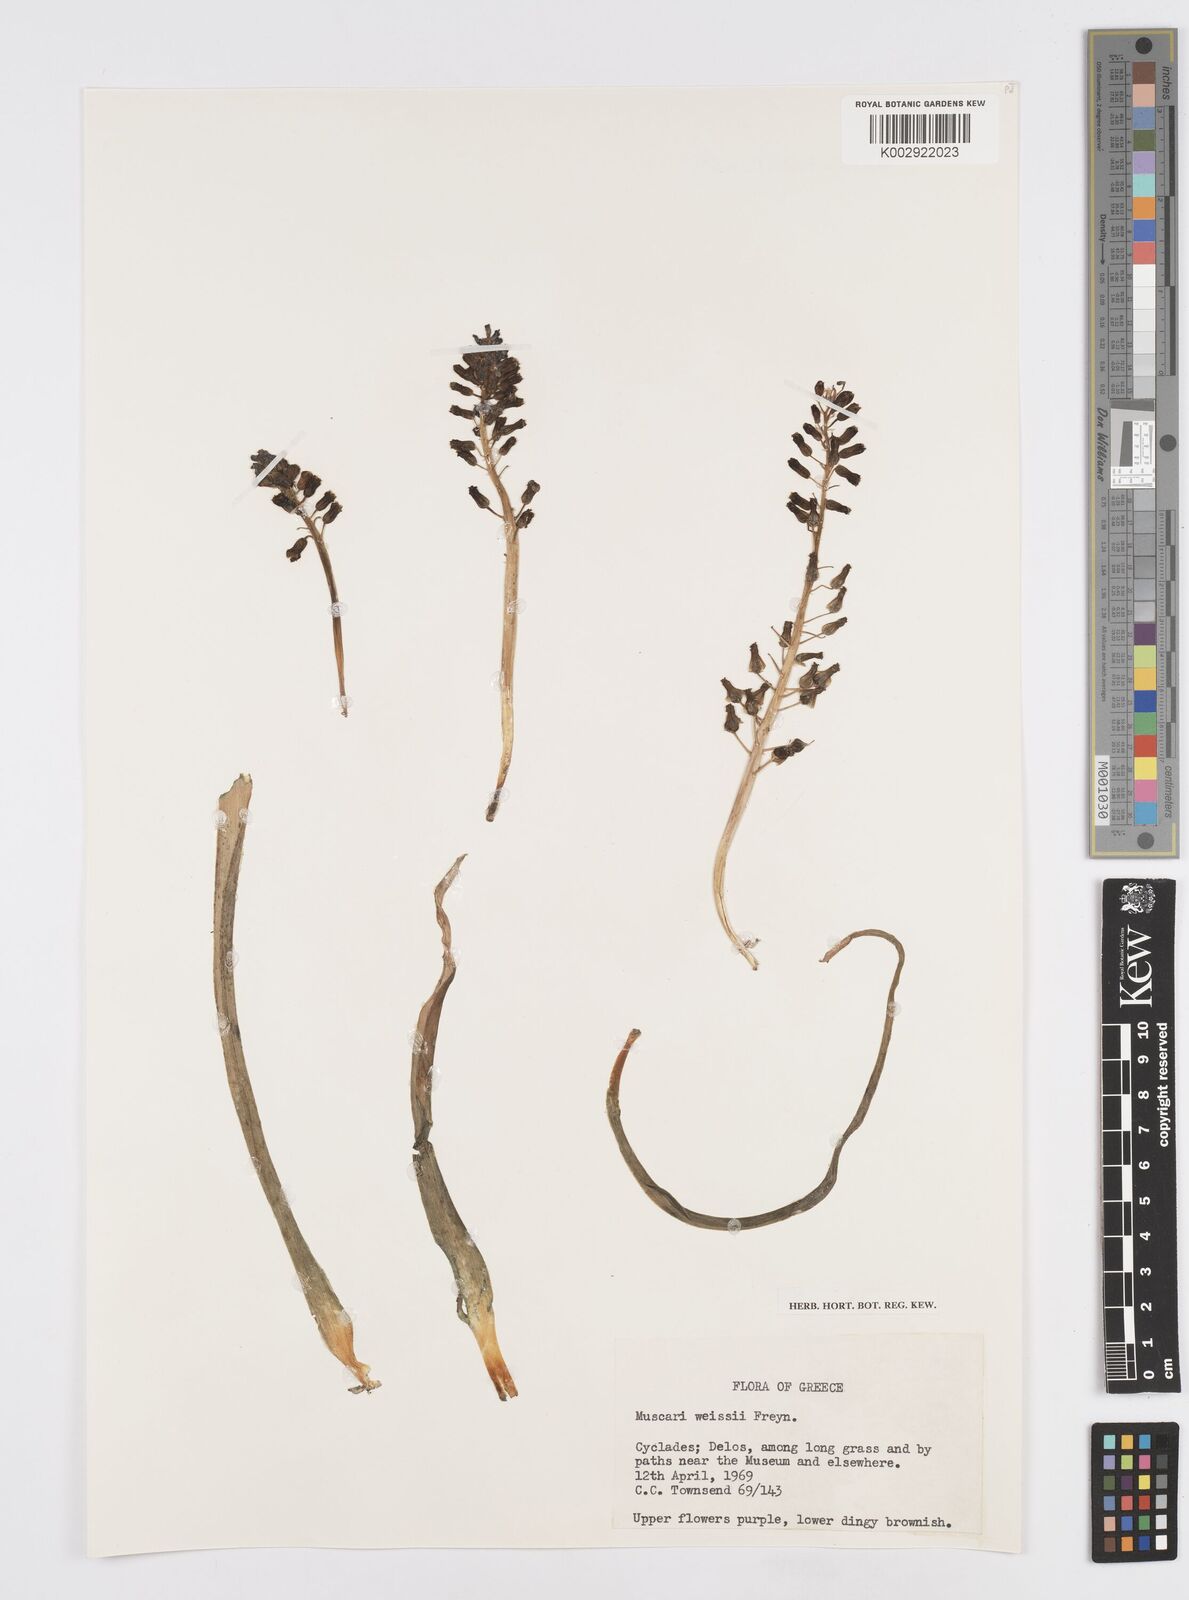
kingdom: Plantae
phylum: Tracheophyta
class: Liliopsida
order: Asparagales
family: Asparagaceae
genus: Muscari
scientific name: Muscari weissii
